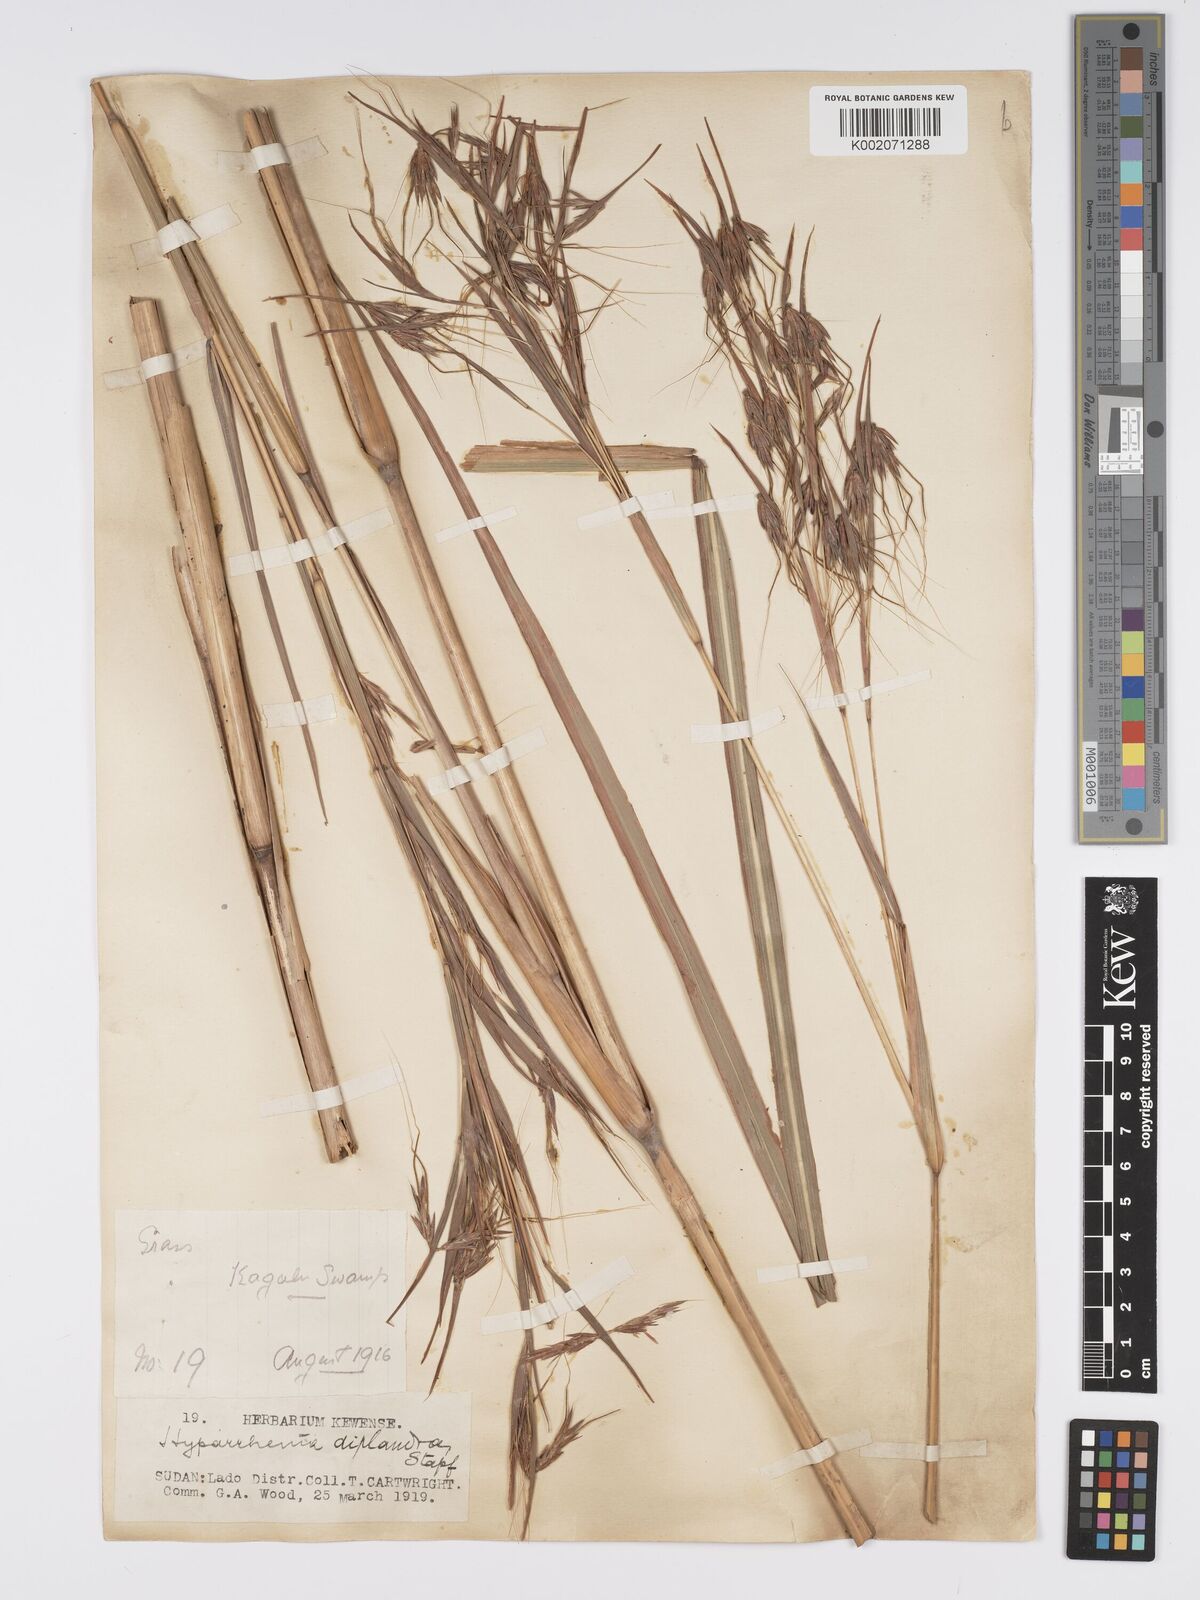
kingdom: Plantae
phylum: Tracheophyta
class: Liliopsida
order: Poales
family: Poaceae
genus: Hyparrhenia
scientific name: Hyparrhenia diplandra
